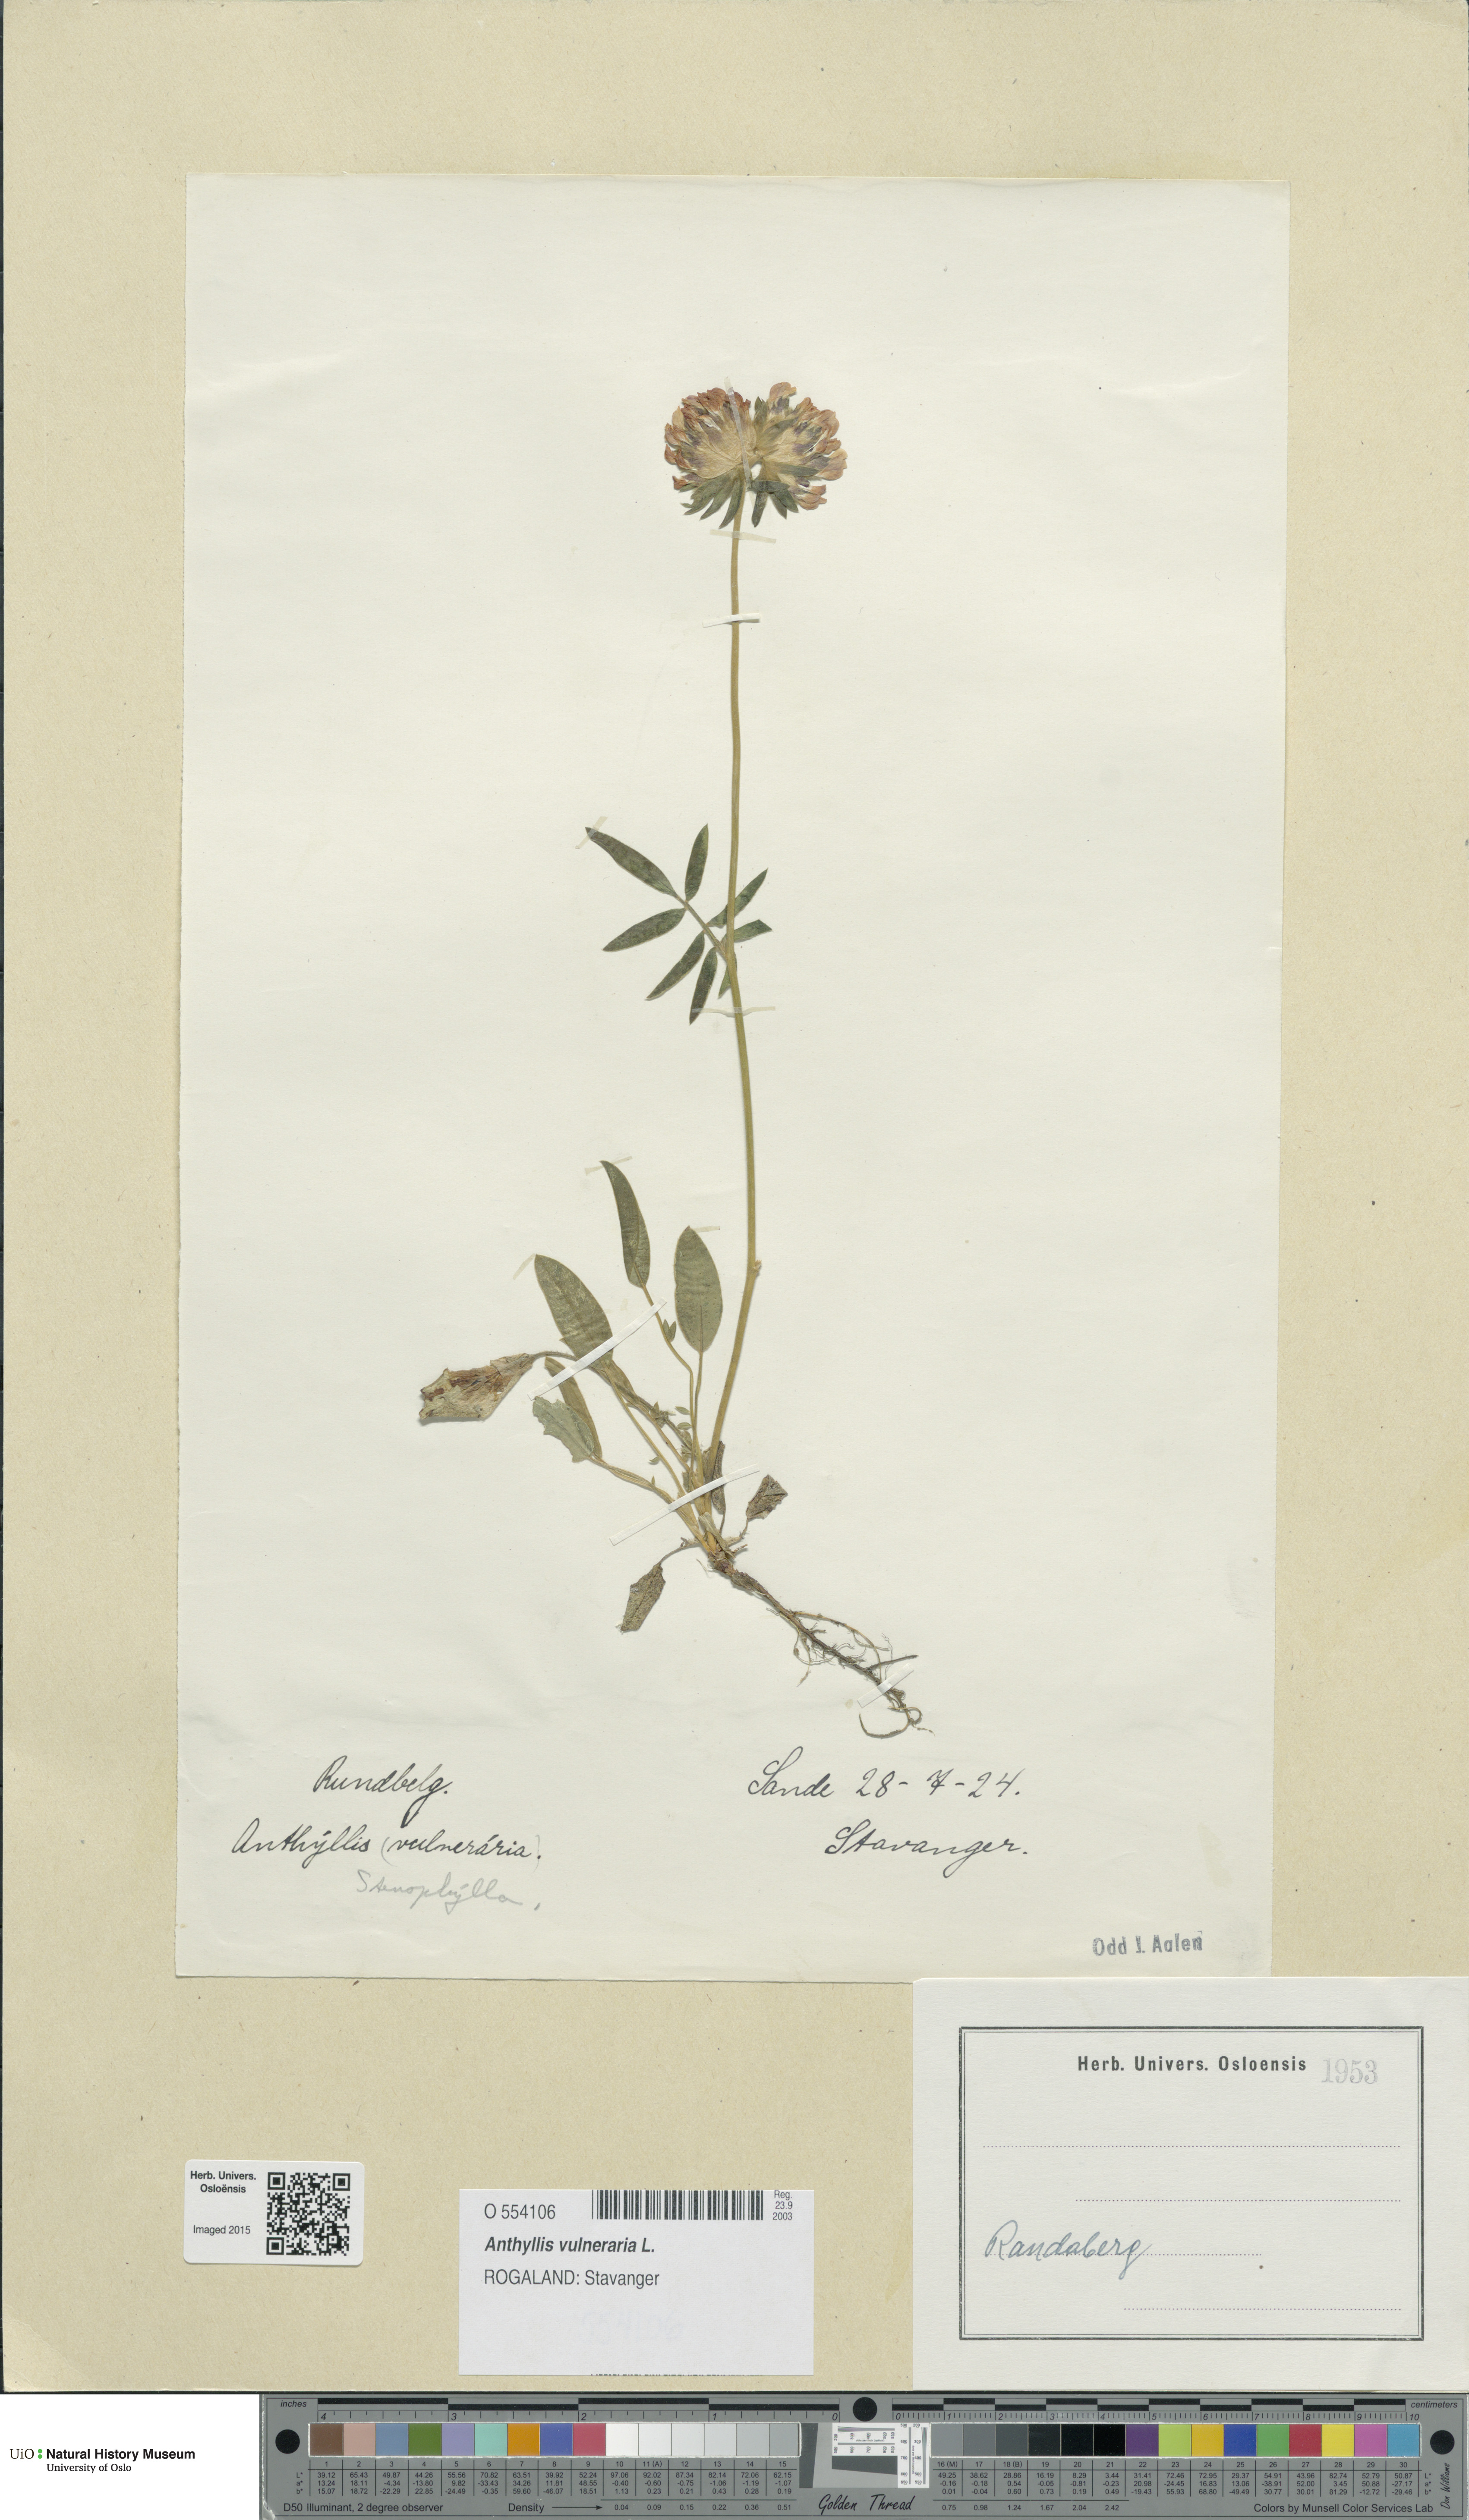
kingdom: Plantae
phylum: Tracheophyta
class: Magnoliopsida
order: Fabales
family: Fabaceae
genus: Anthyllis
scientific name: Anthyllis vulneraria
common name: Kidney vetch
